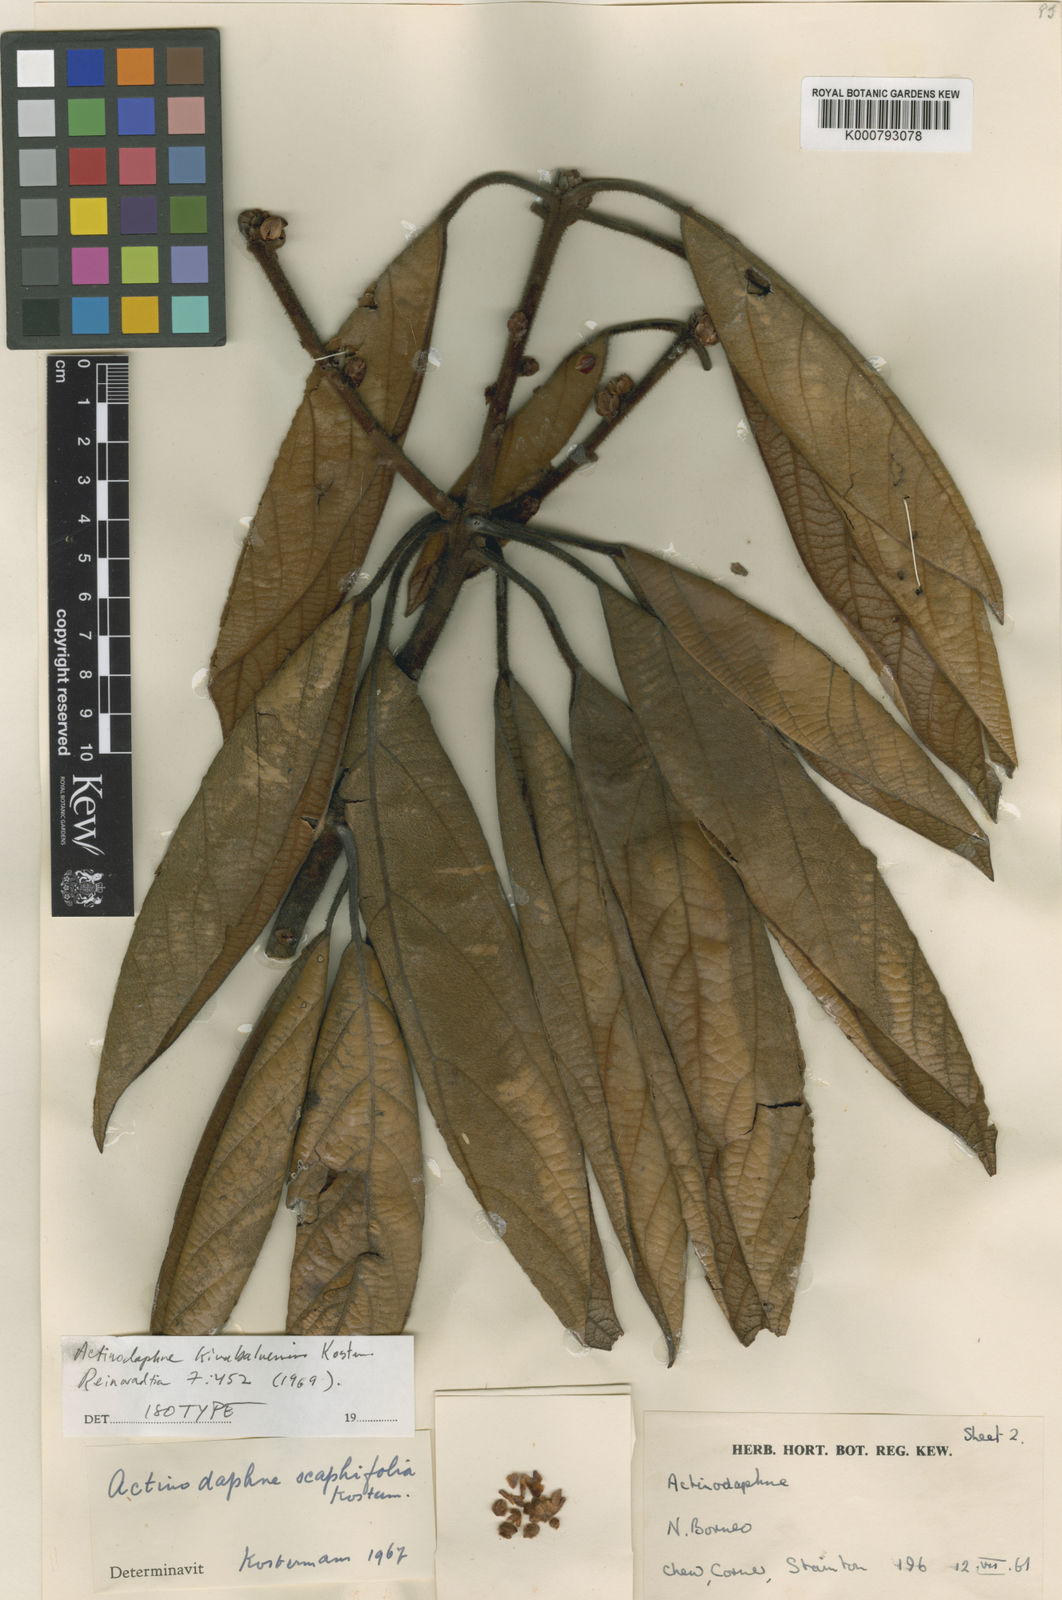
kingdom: Plantae
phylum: Tracheophyta
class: Magnoliopsida
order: Laurales
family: Lauraceae
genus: Actinodaphne
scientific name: Actinodaphne kinabaluensis
